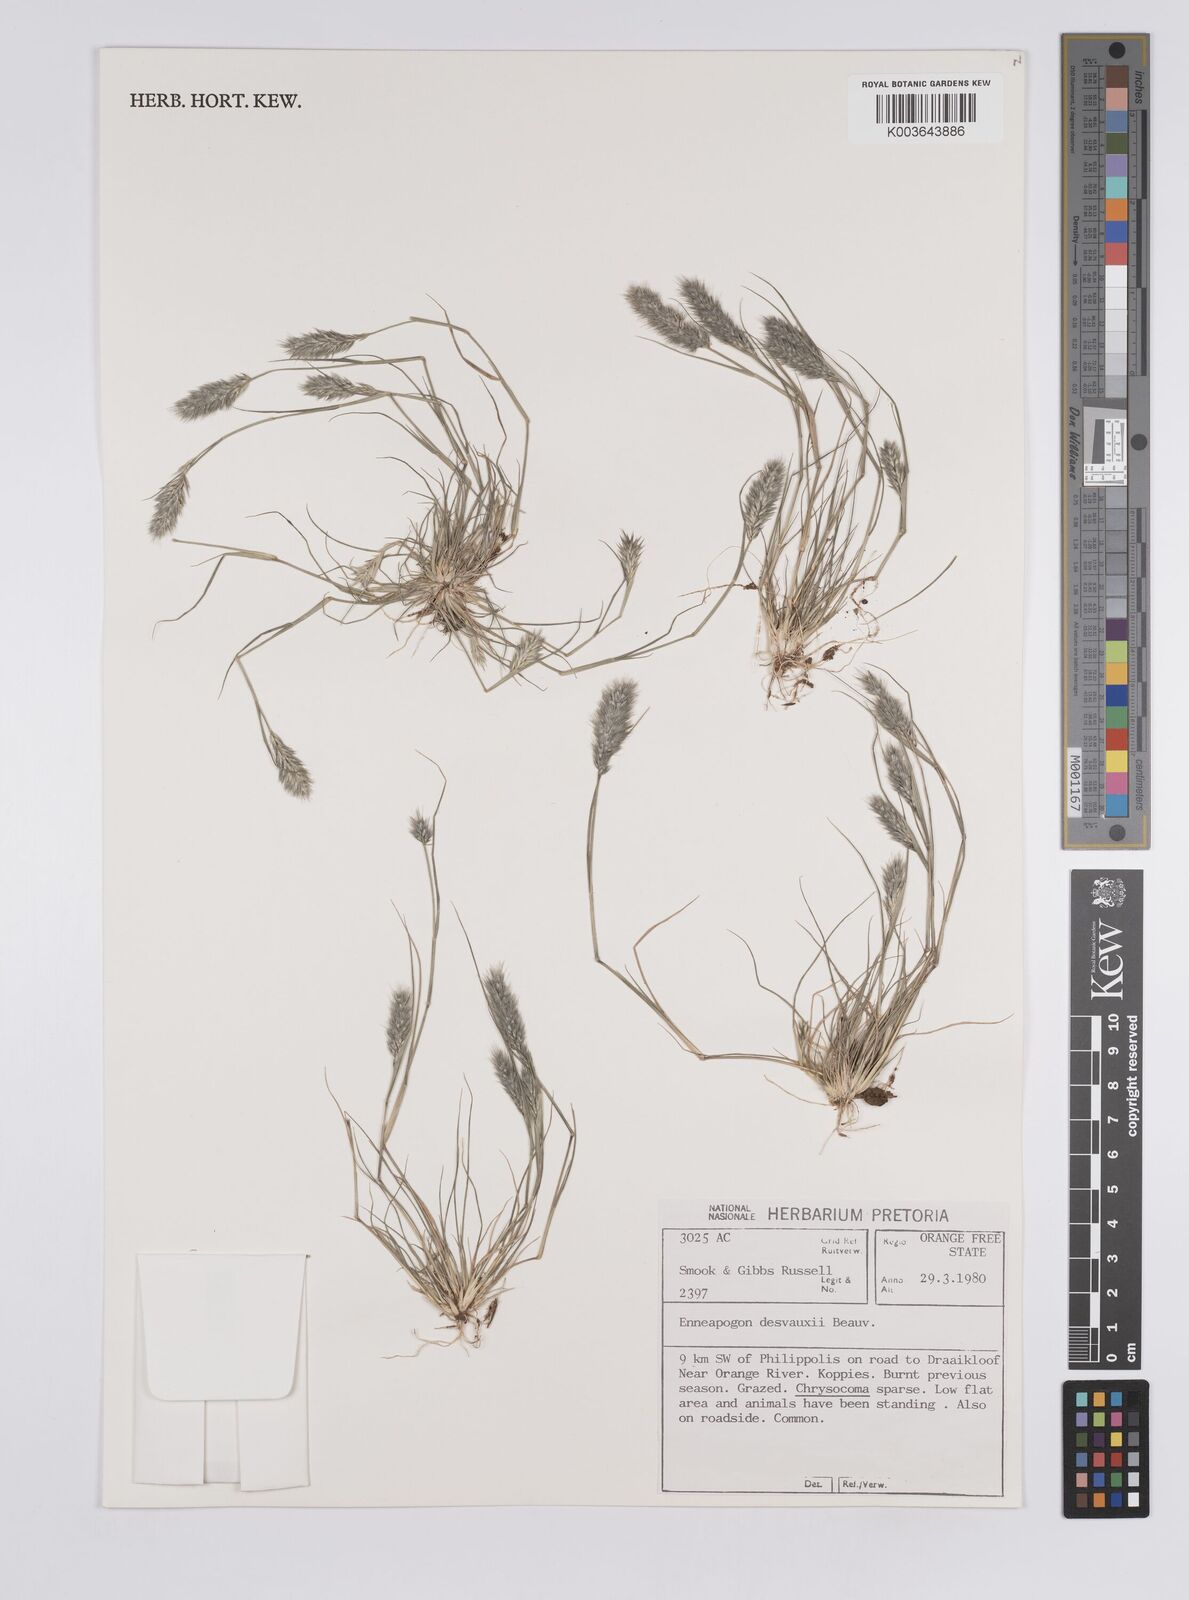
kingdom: Plantae
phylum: Tracheophyta
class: Liliopsida
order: Poales
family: Poaceae
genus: Enneapogon
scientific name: Enneapogon desvauxii
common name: Feather pappus grass
